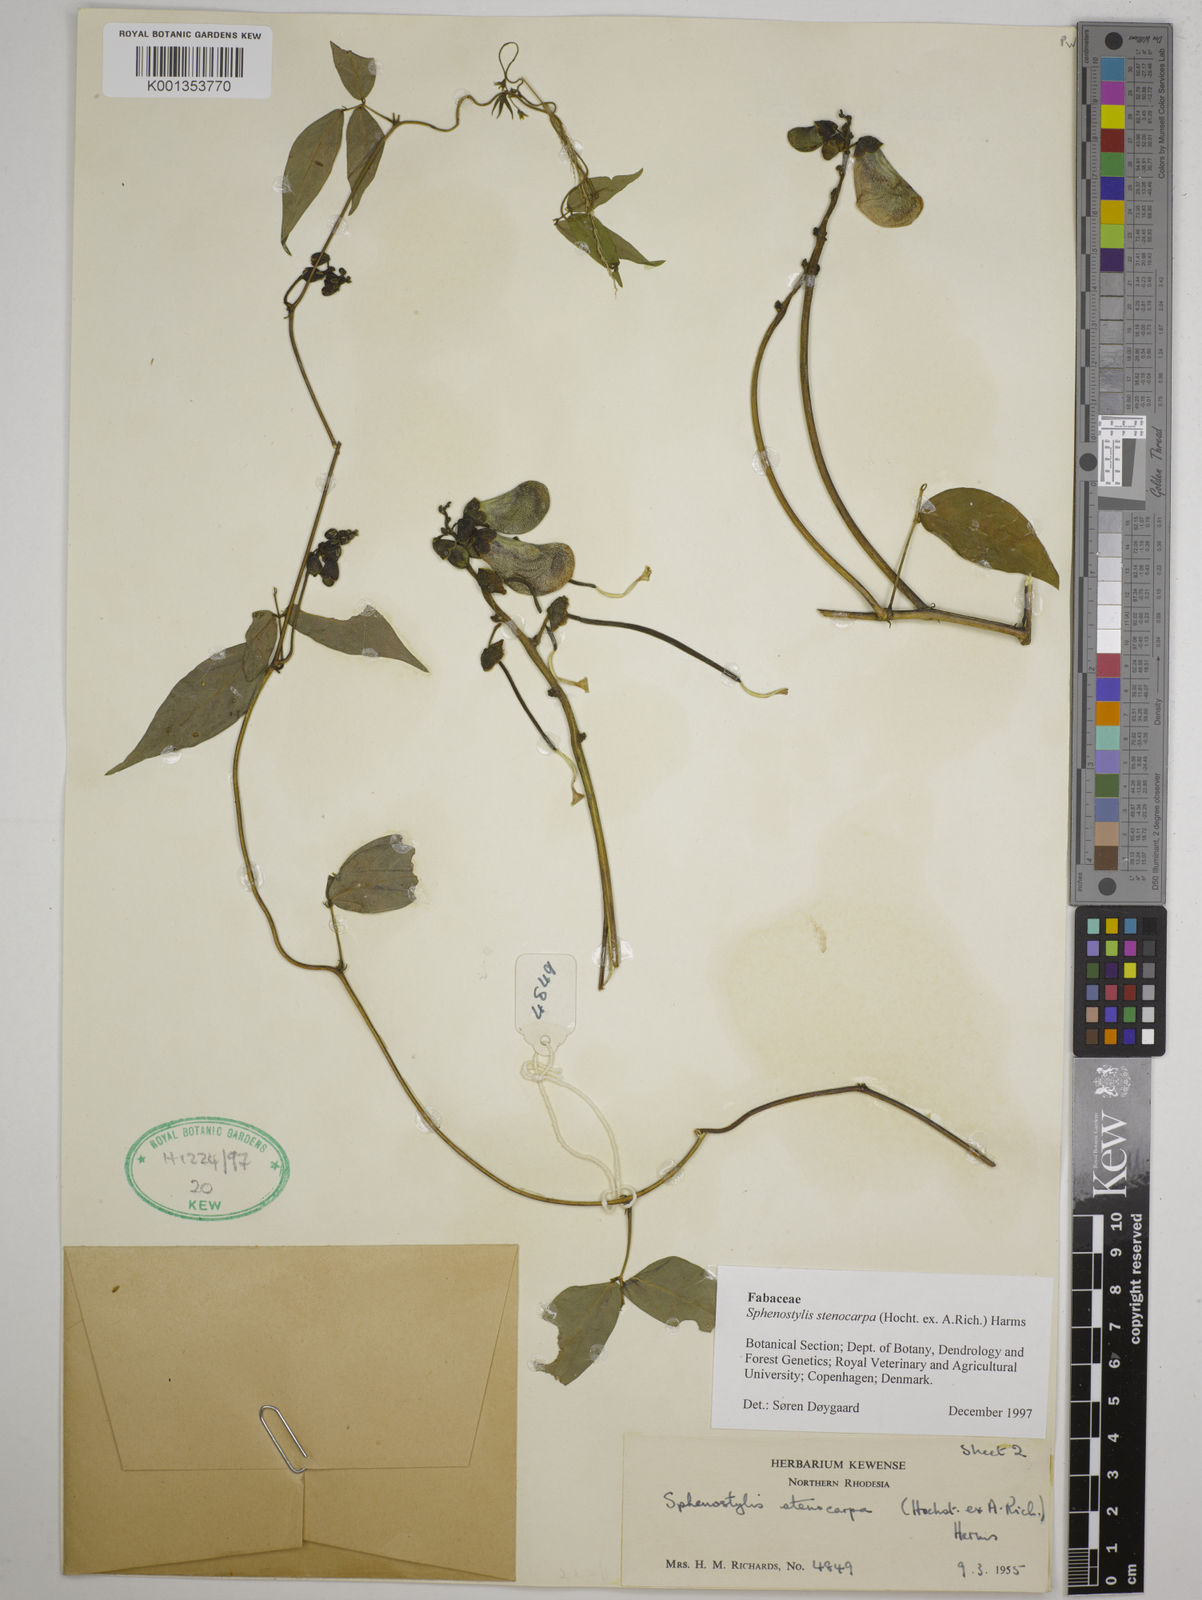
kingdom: Plantae
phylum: Tracheophyta
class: Magnoliopsida
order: Fabales
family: Fabaceae
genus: Sphenostylis
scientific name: Sphenostylis stenocarpa
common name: Yam-pea
